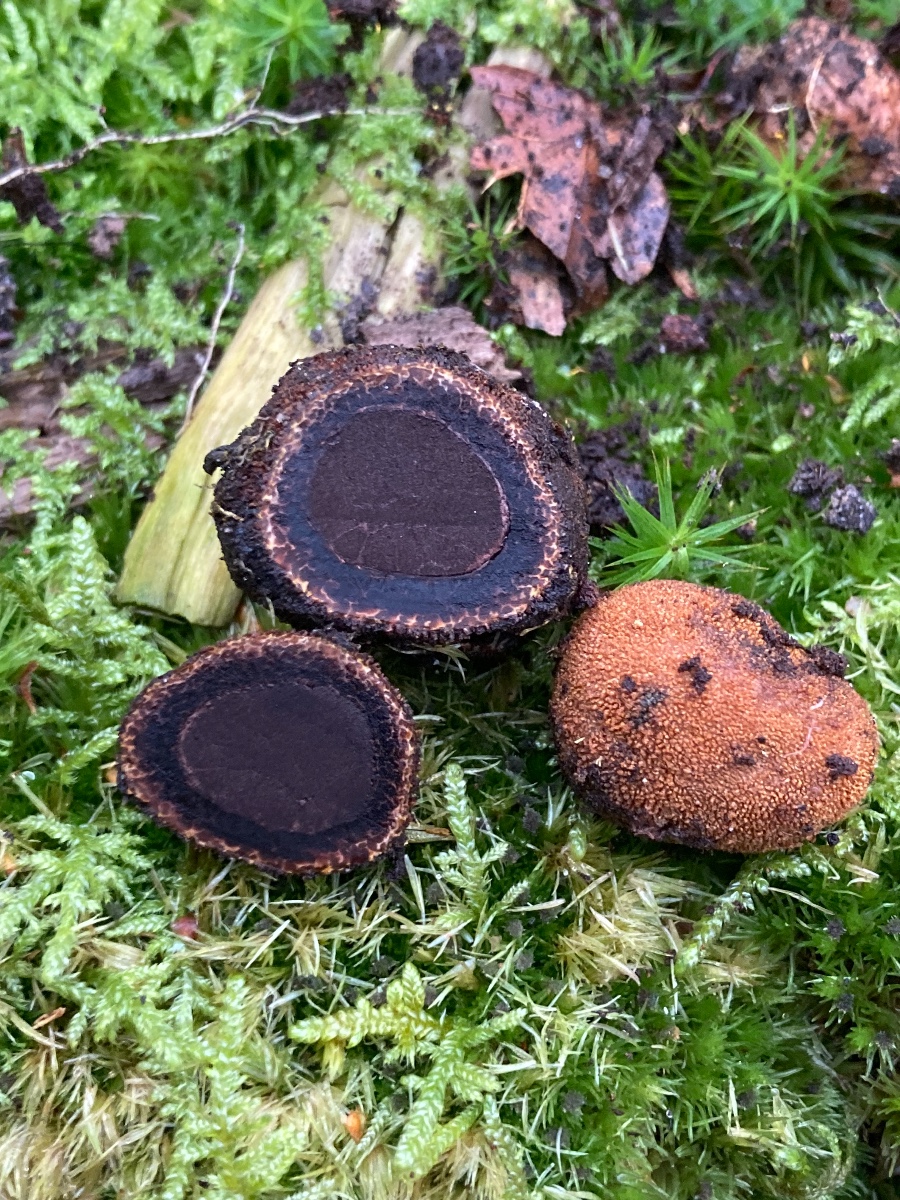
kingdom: Fungi
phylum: Ascomycota
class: Eurotiomycetes
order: Eurotiales
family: Elaphomycetaceae
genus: Elaphomyces
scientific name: Elaphomyces muricatus
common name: vortet hjortetrøffel
